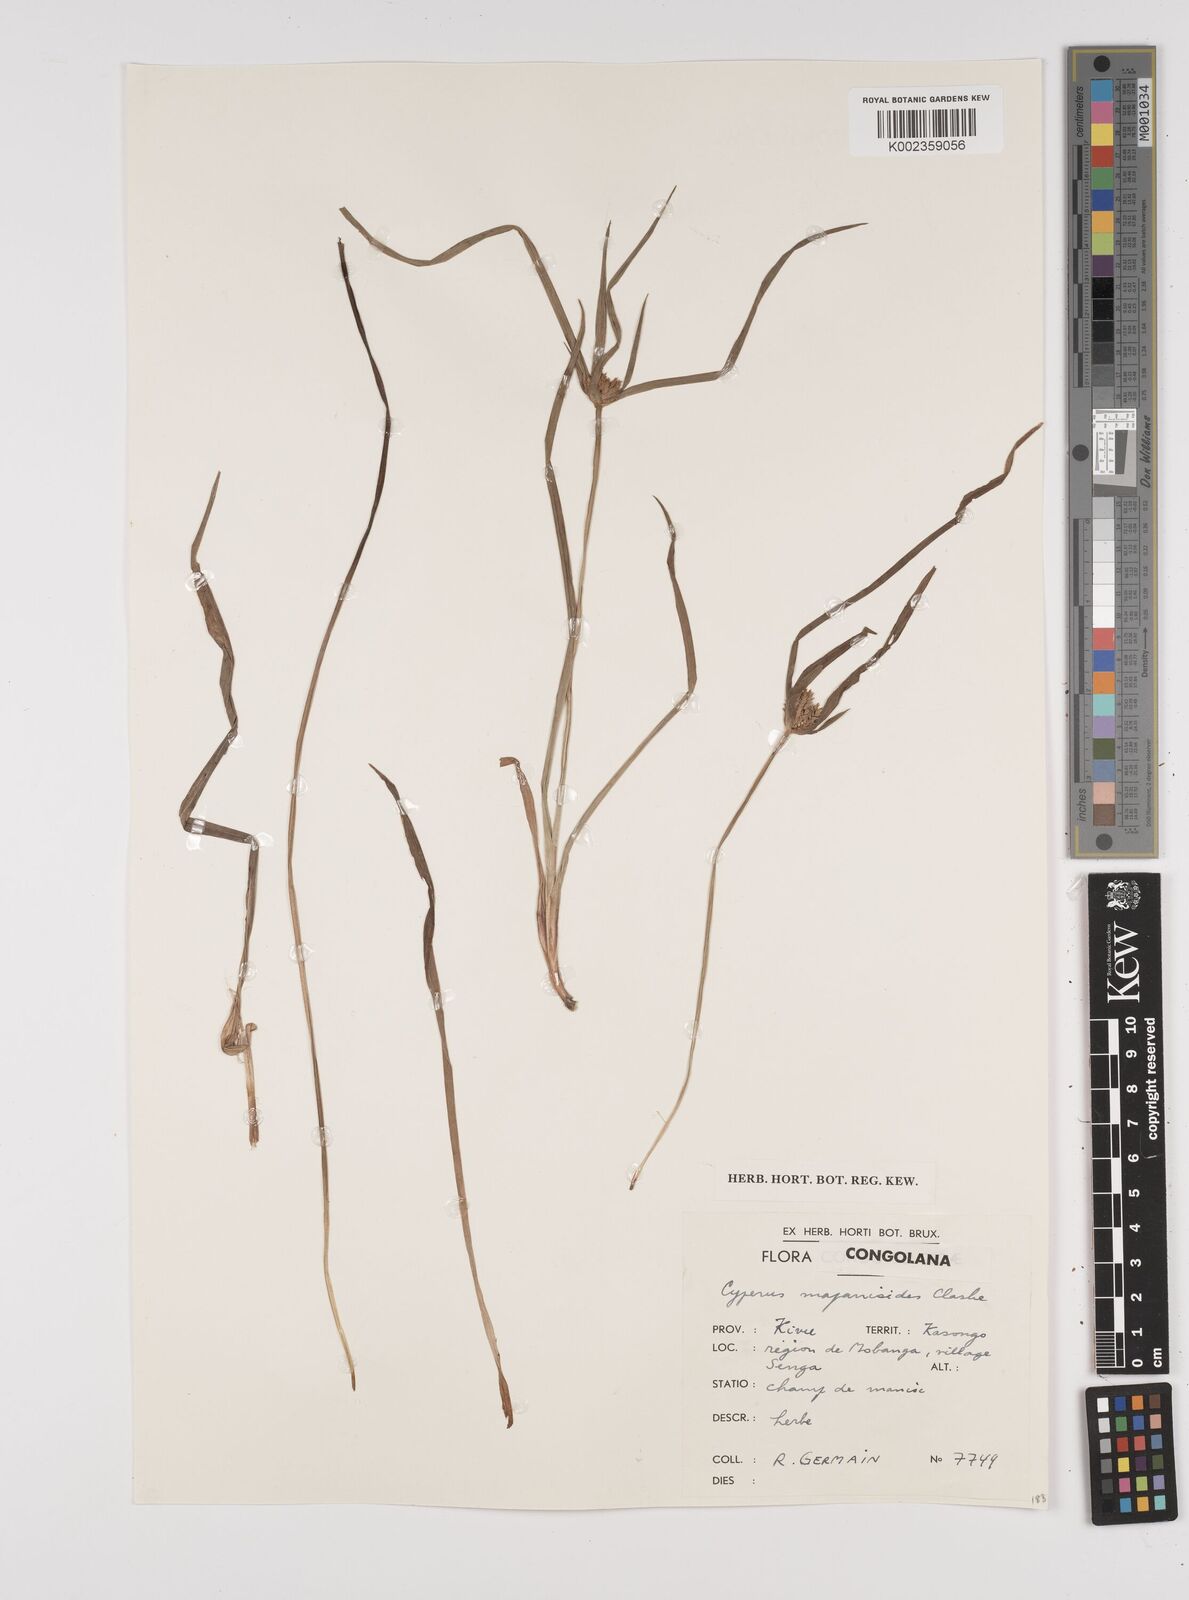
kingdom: Plantae
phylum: Tracheophyta
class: Liliopsida
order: Poales
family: Cyperaceae
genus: Cyperus
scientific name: Cyperus mapanioides
